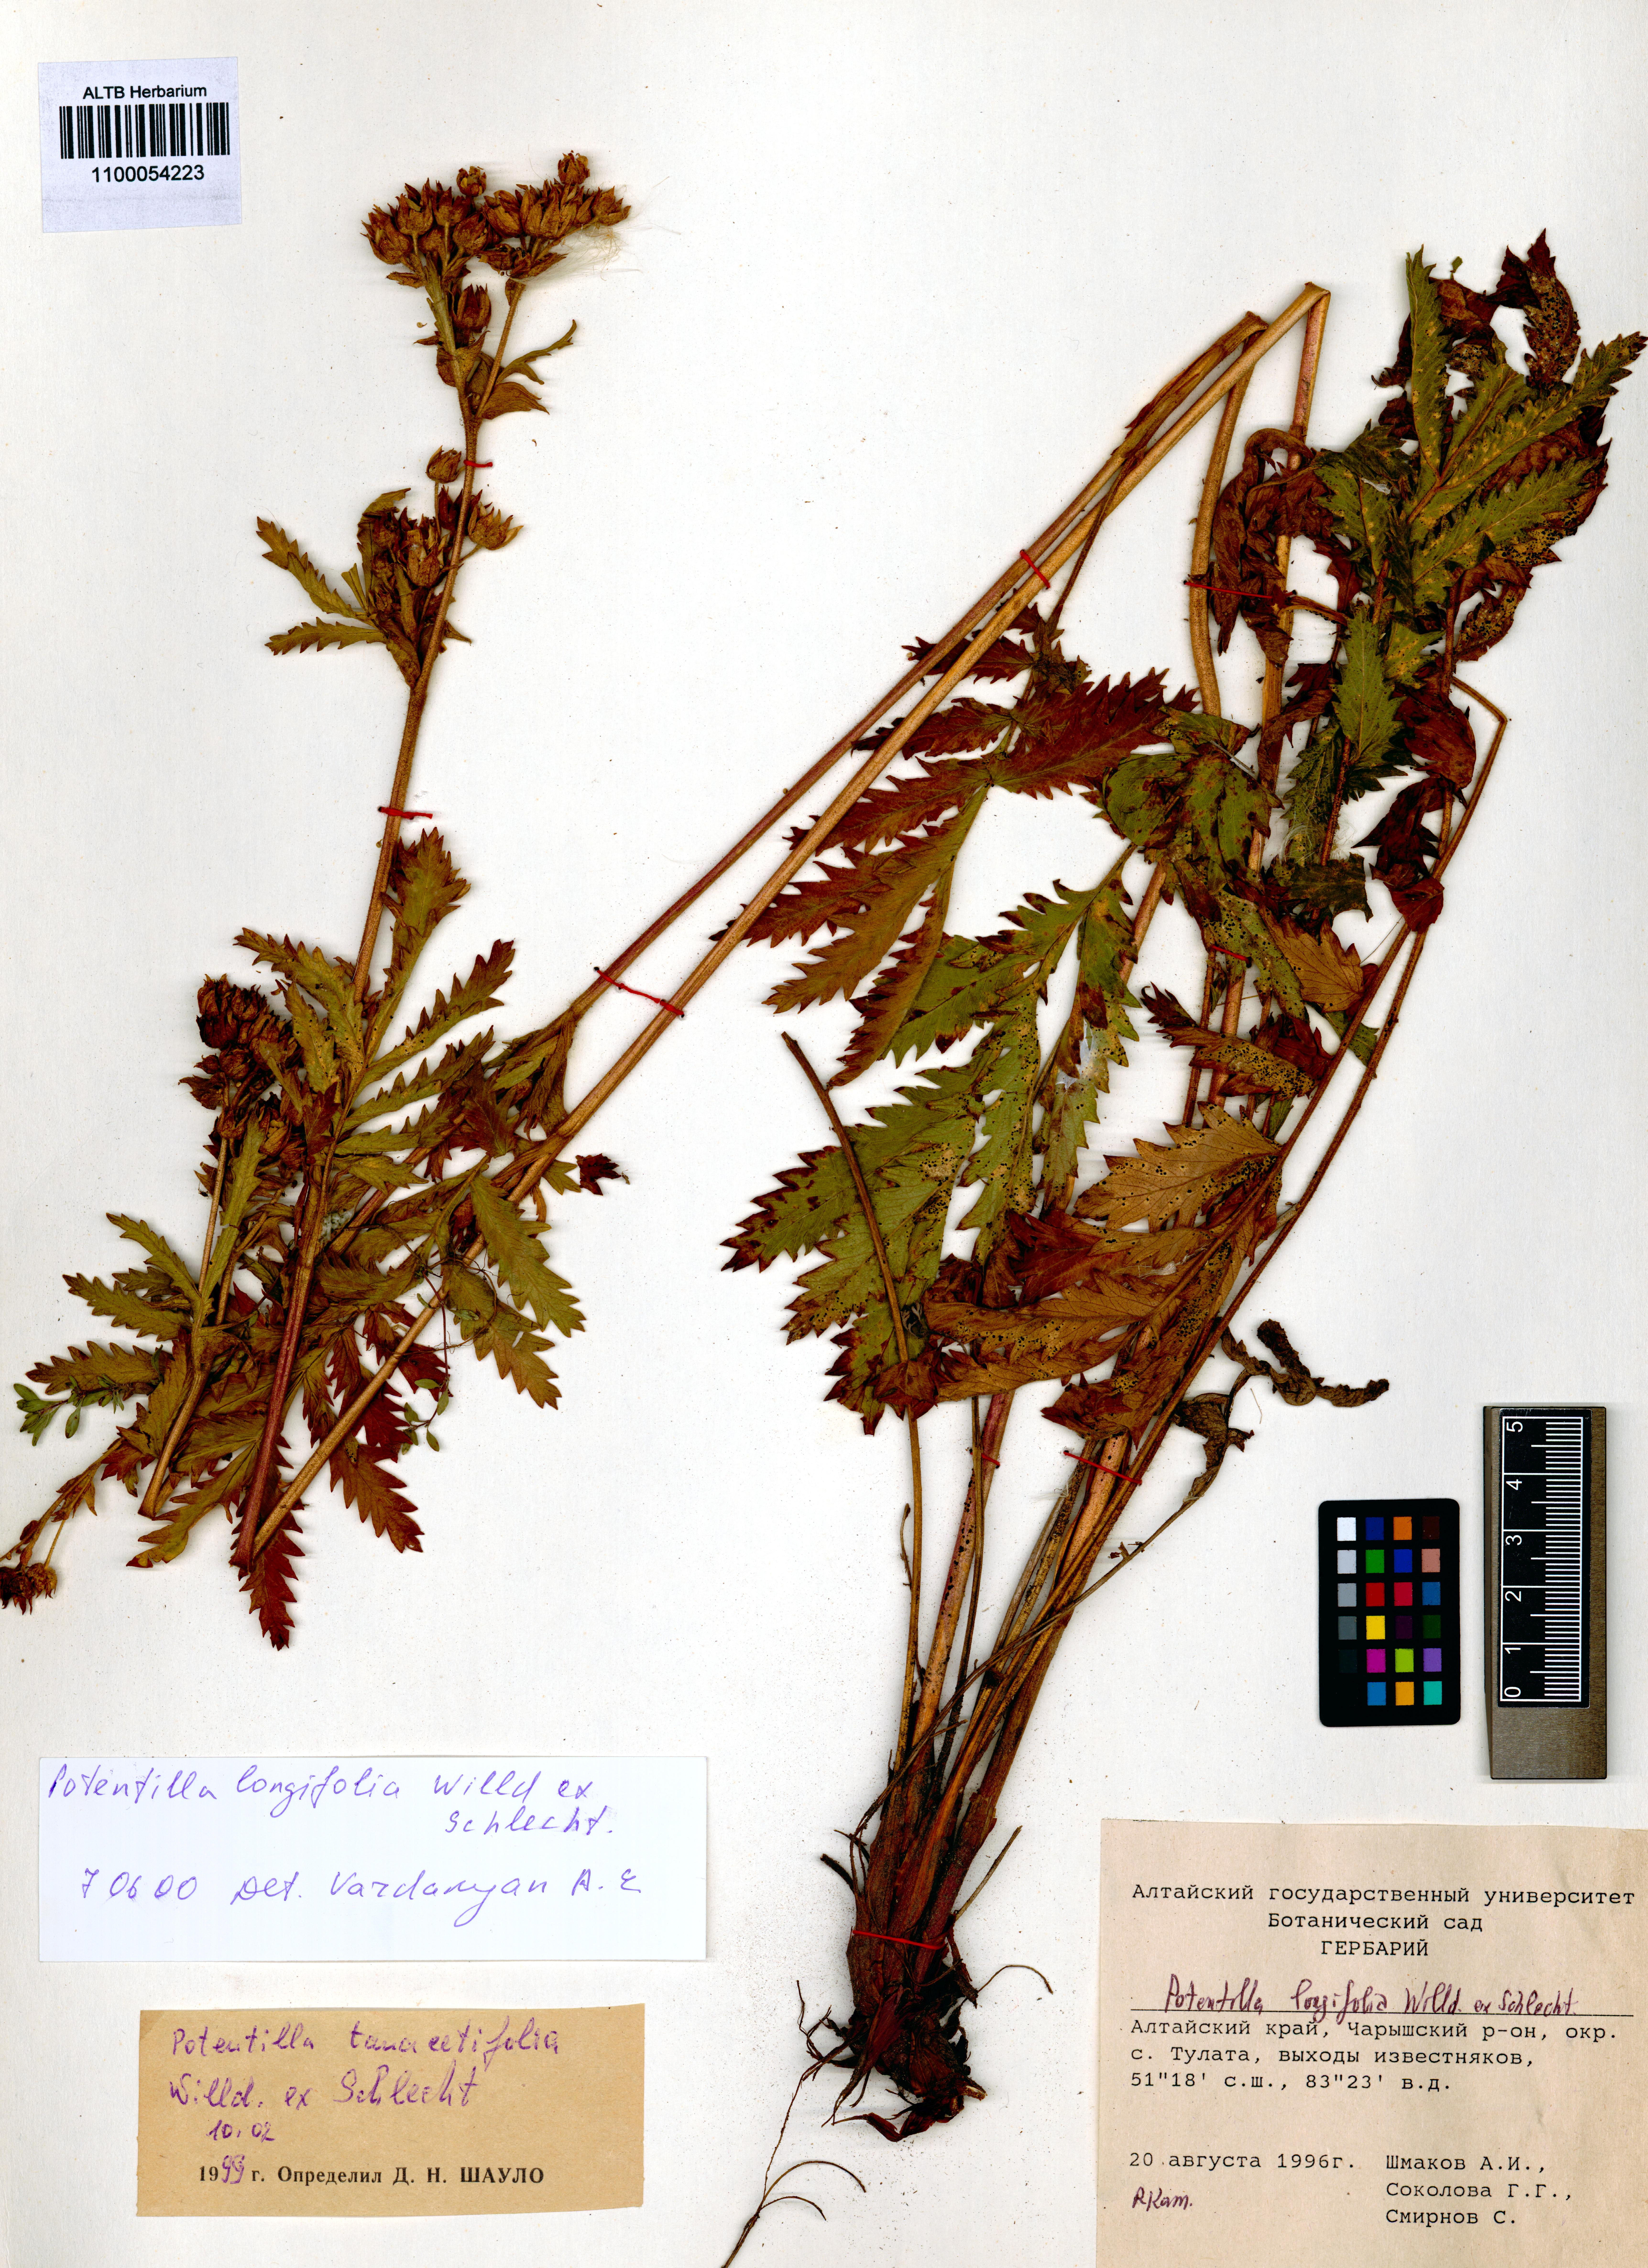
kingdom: Plantae
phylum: Tracheophyta
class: Magnoliopsida
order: Rosales
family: Rosaceae
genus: Potentilla
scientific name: Potentilla longifolia
